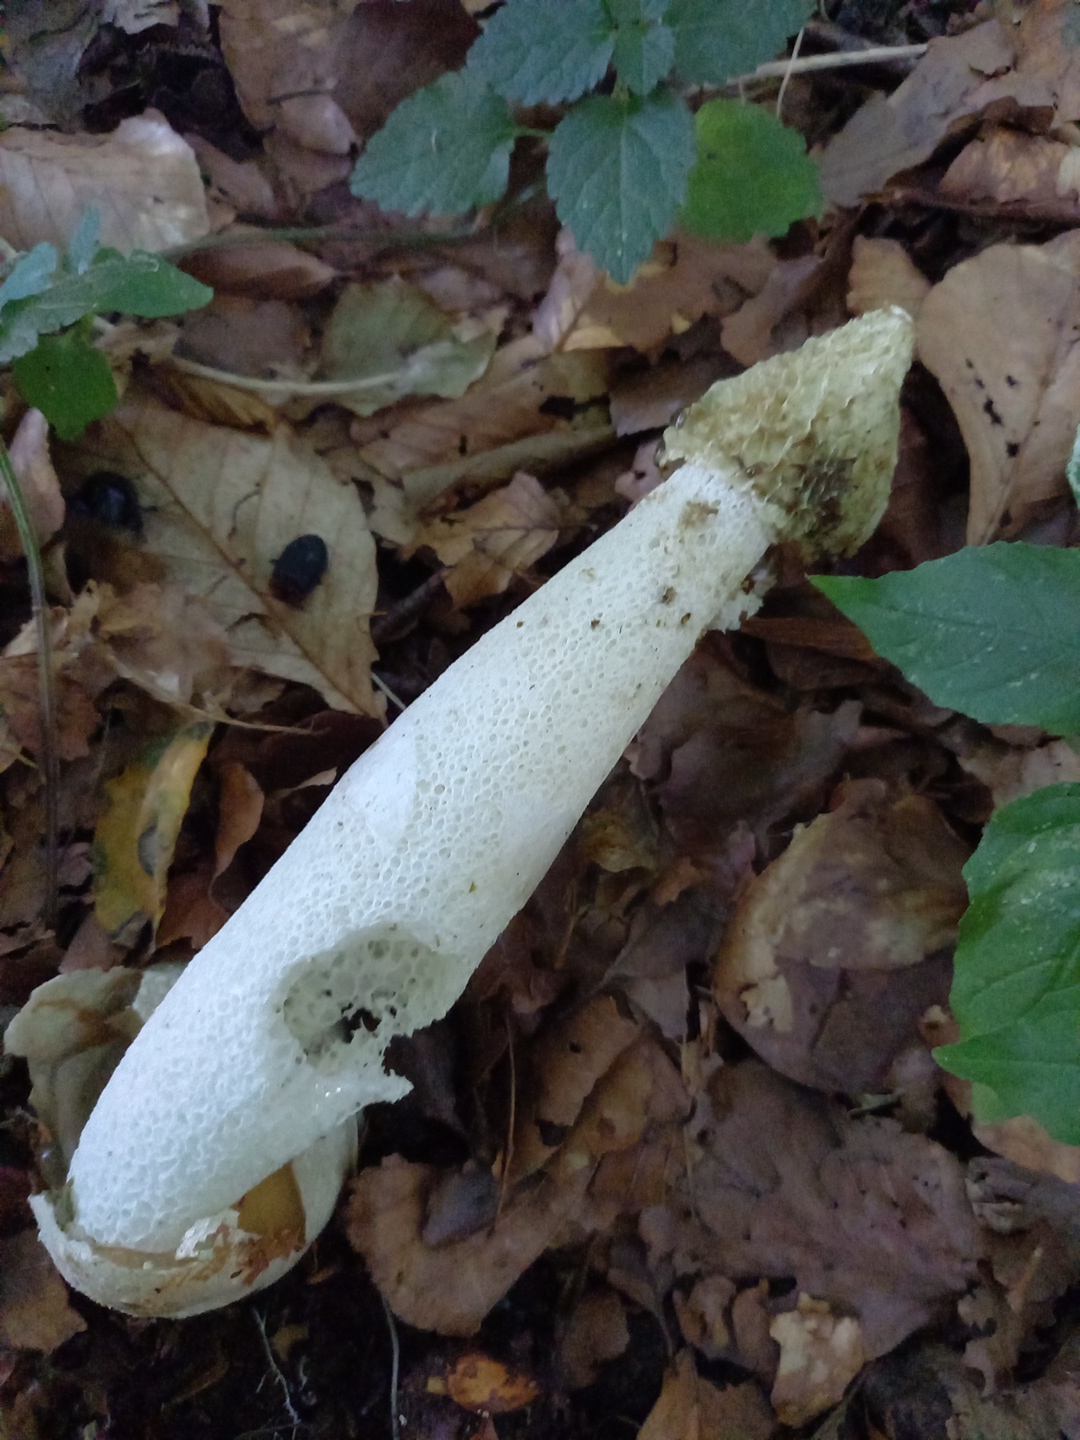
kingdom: Fungi
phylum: Basidiomycota
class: Agaricomycetes
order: Phallales
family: Phallaceae
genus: Phallus
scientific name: Phallus impudicus
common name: almindelig stinksvamp
